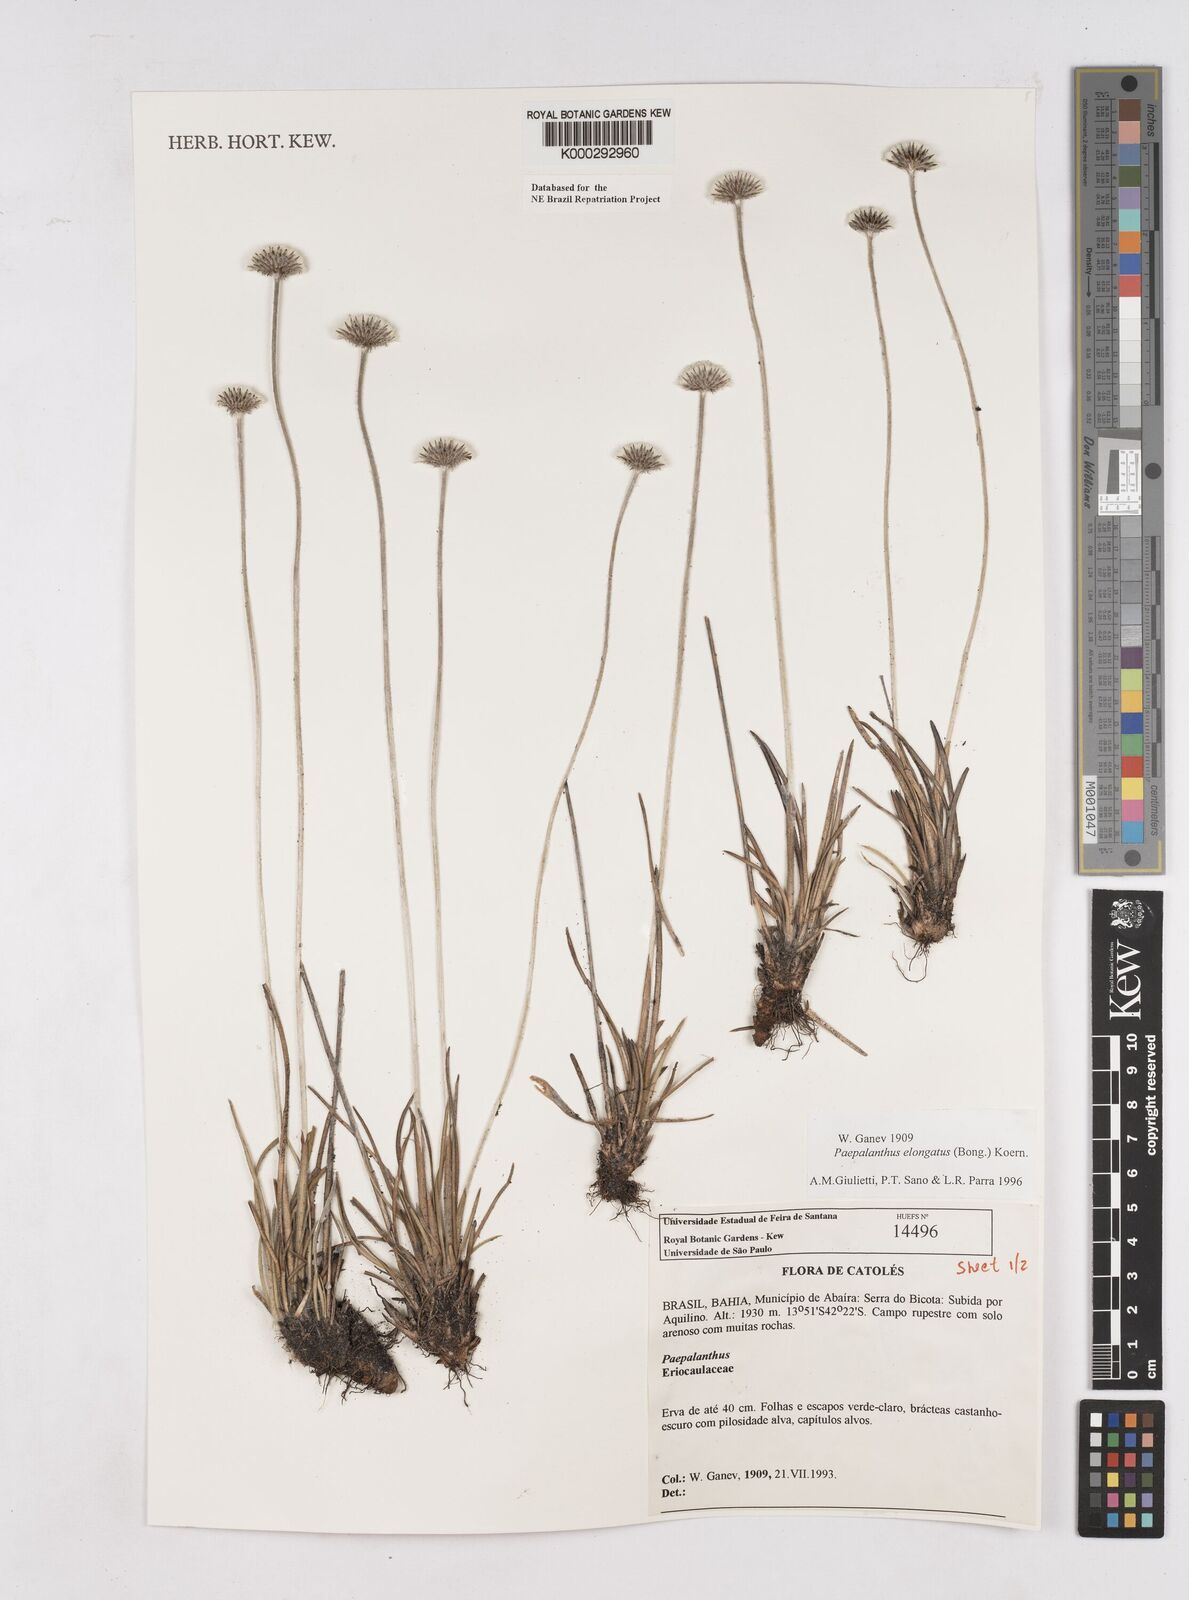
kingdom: Plantae
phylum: Tracheophyta
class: Liliopsida
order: Poales
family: Eriocaulaceae
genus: Paepalanthus
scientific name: Paepalanthus
